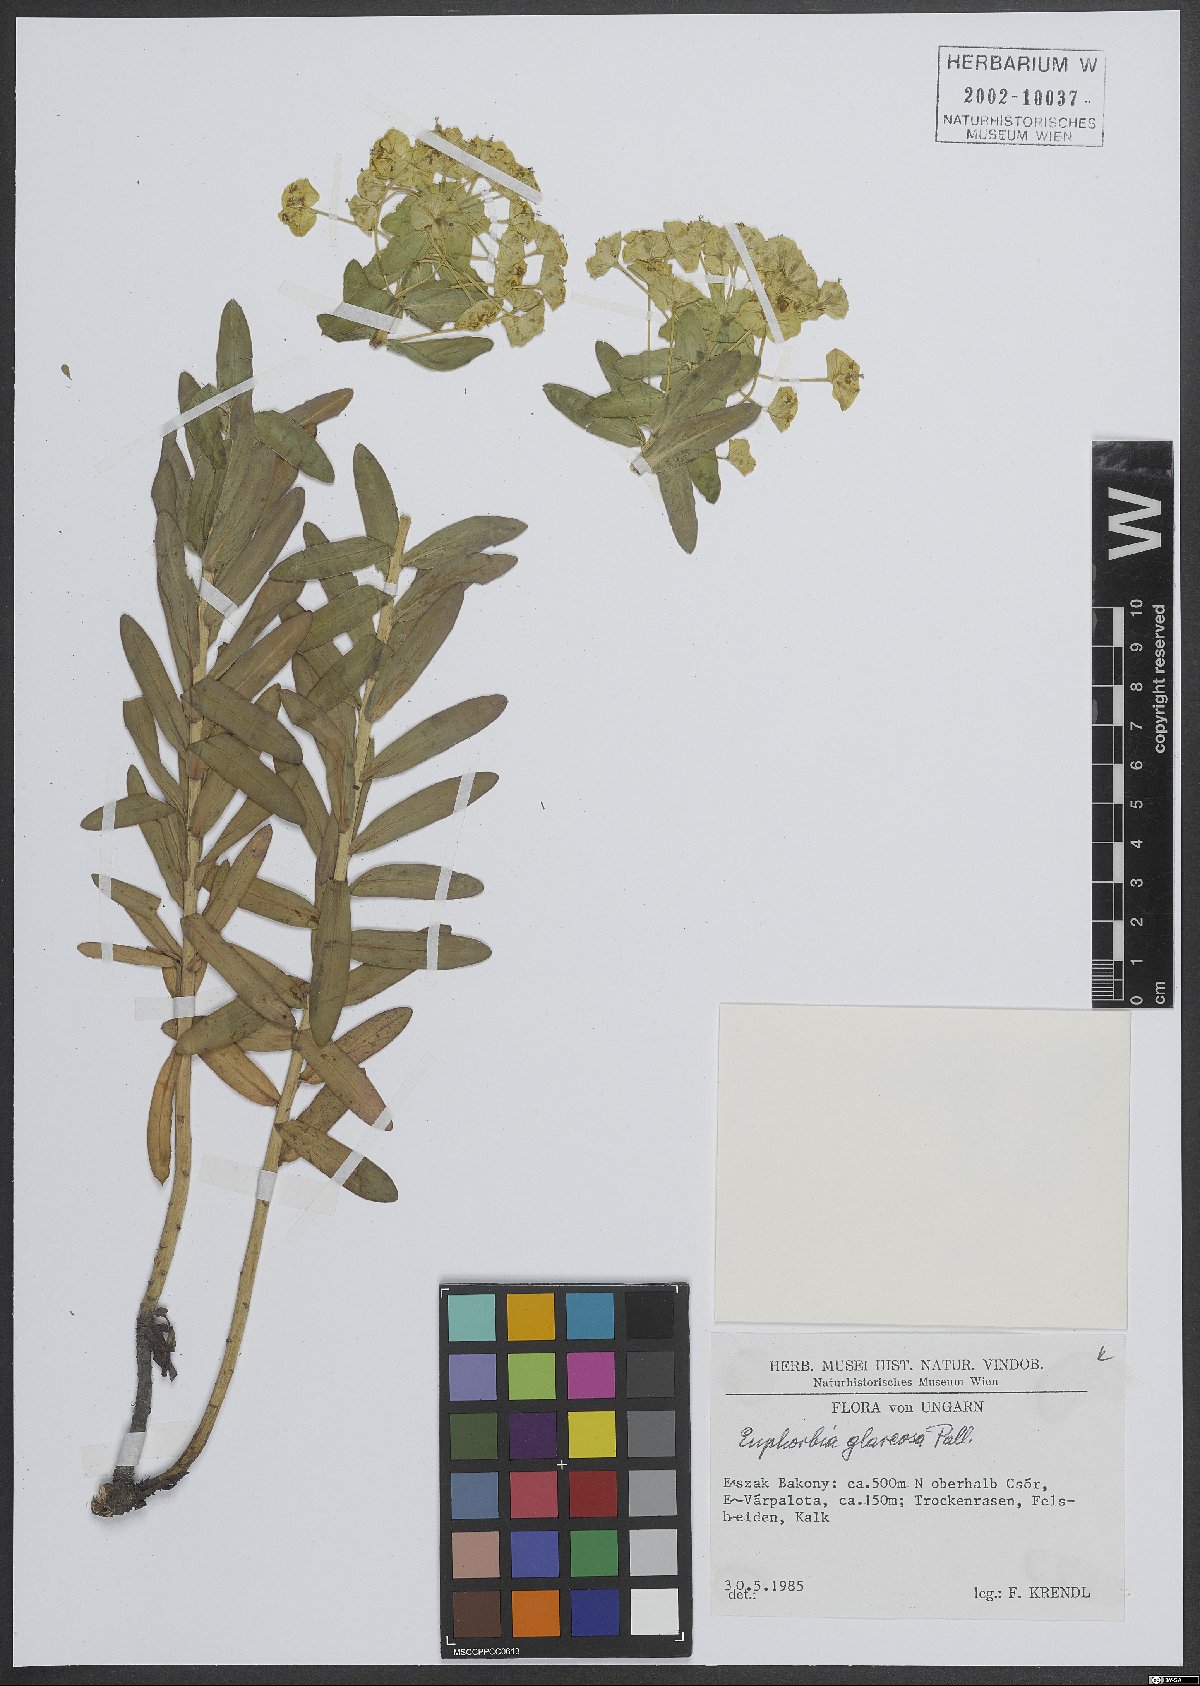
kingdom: Plantae
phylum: Tracheophyta
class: Magnoliopsida
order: Malpighiales
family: Euphorbiaceae
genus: Euphorbia
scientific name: Euphorbia glareosa
